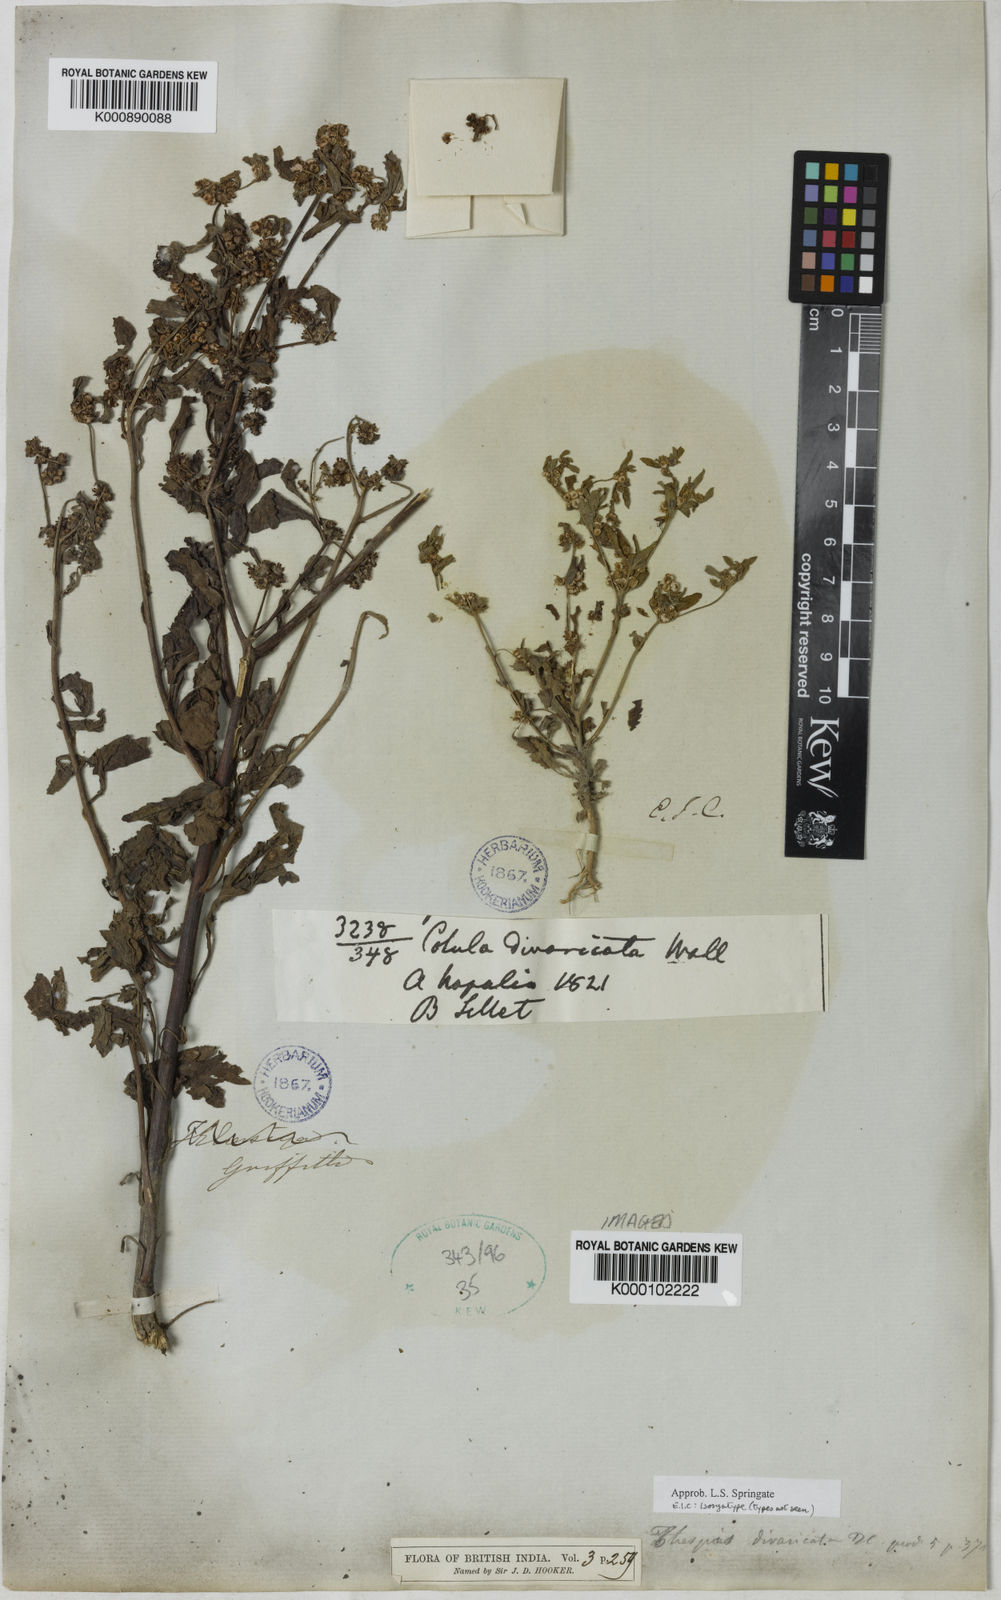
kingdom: Plantae
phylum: Tracheophyta
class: Magnoliopsida
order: Asterales
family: Asteraceae
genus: Thespis
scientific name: Thespis divaricata
